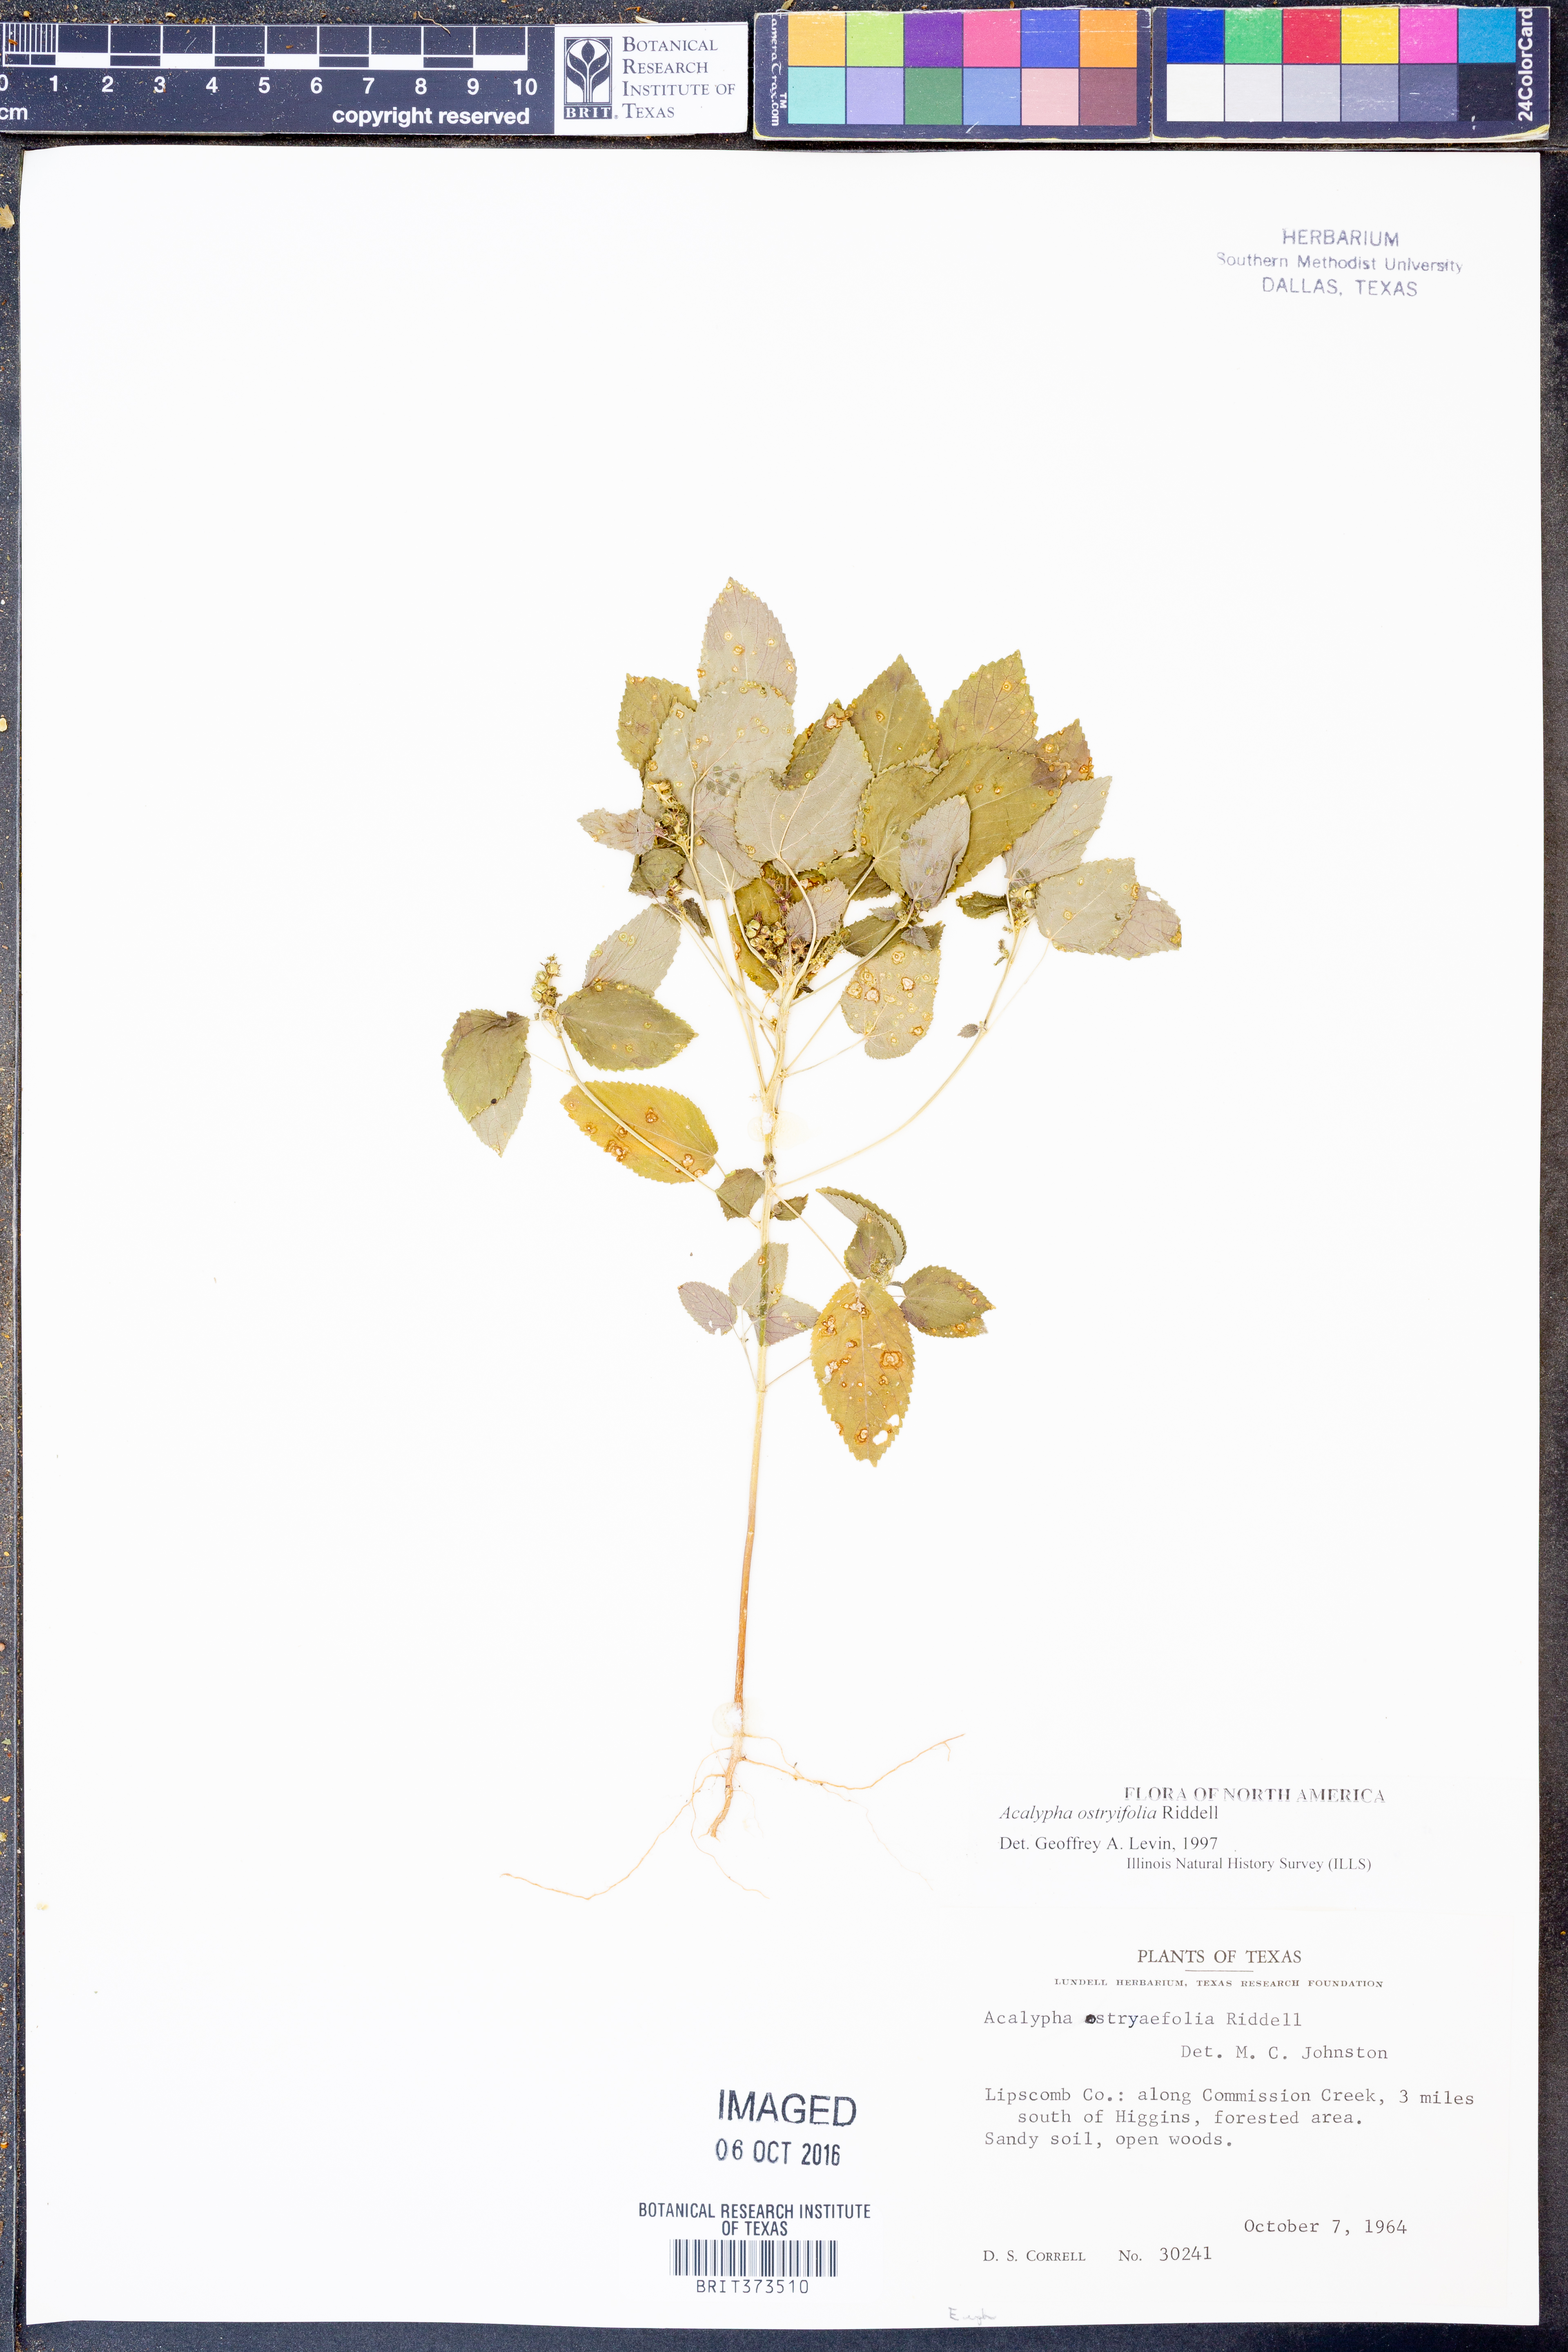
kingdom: Plantae
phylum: Tracheophyta
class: Magnoliopsida
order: Malpighiales
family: Euphorbiaceae
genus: Acalypha
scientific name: Acalypha persimilis
